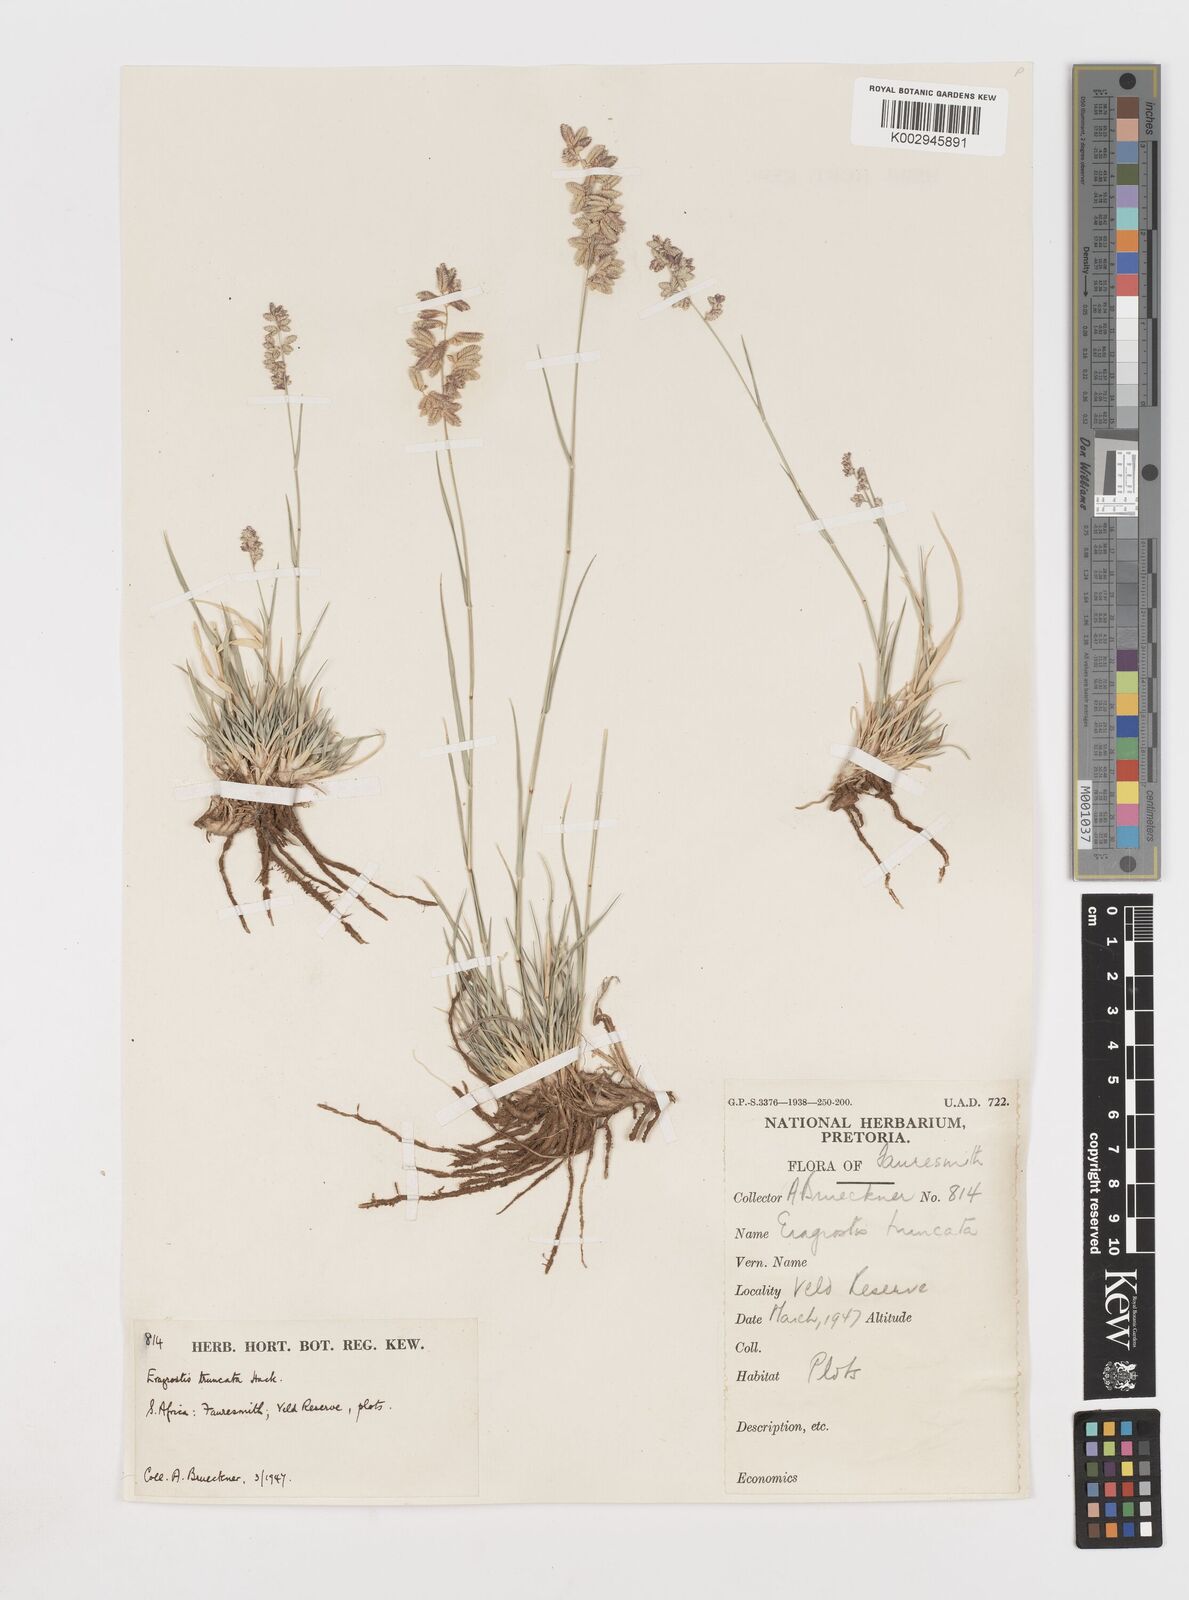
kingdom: Plantae
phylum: Tracheophyta
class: Liliopsida
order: Poales
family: Poaceae
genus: Eragrostis
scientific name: Eragrostis truncata
